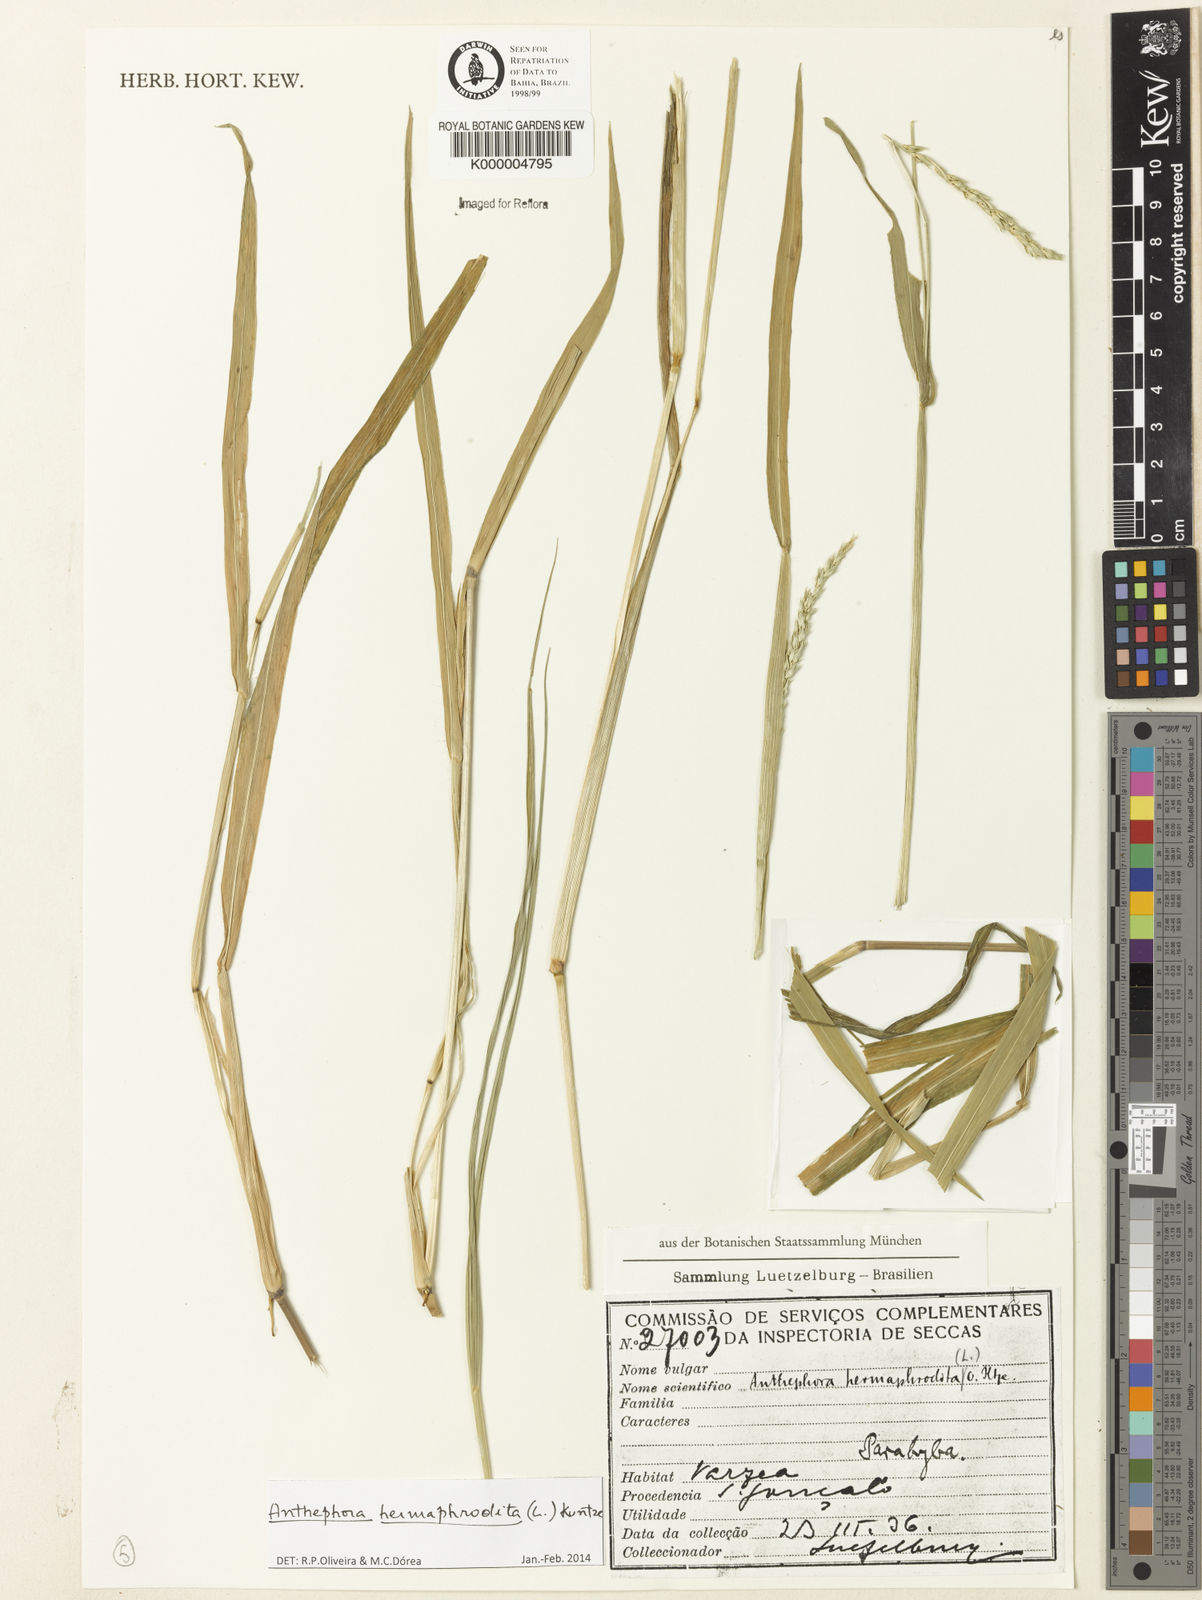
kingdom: Plantae
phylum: Tracheophyta
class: Liliopsida
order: Poales
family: Poaceae
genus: Anthephora
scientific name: Anthephora hermaphrodita
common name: Oldfield grass
